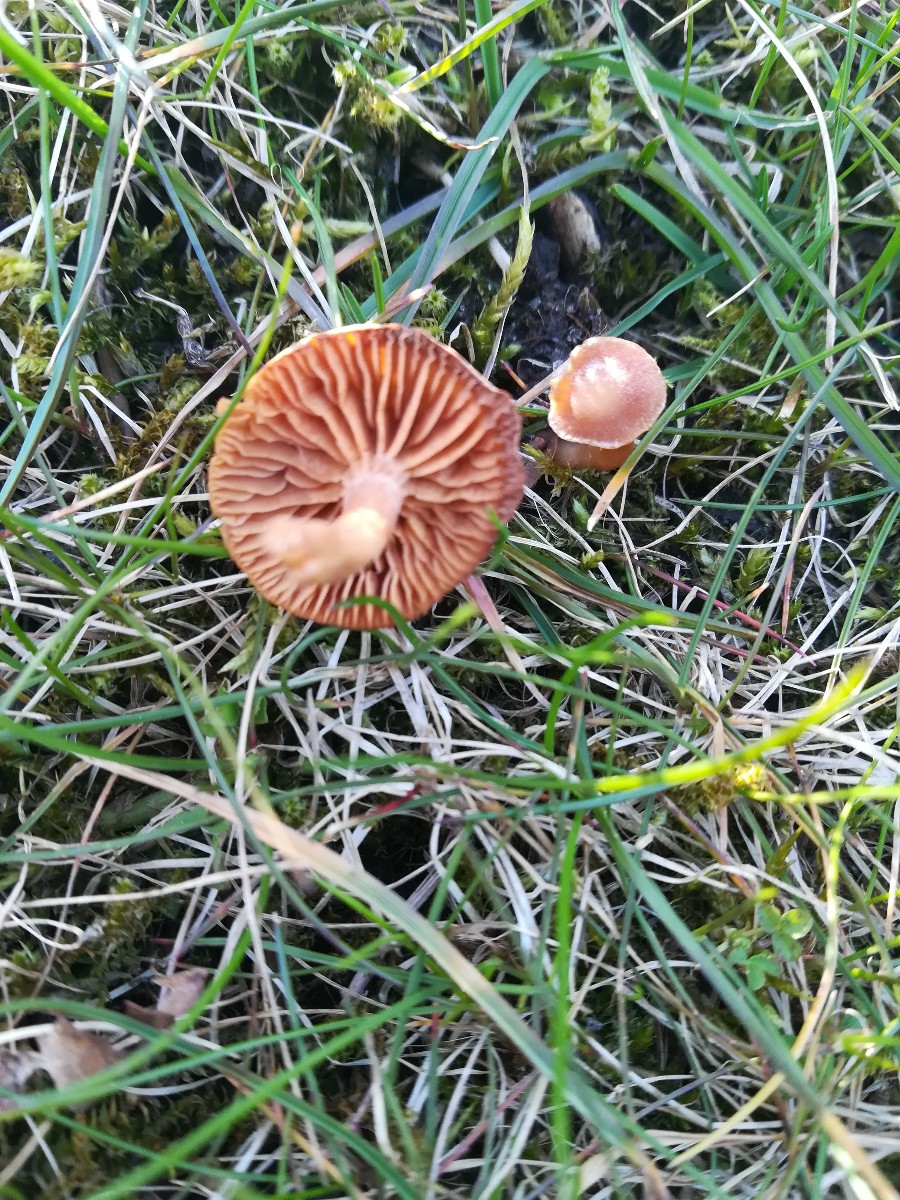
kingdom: Fungi
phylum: Basidiomycota
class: Agaricomycetes
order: Agaricales
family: Tubariaceae
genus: Tubaria
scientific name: Tubaria furfuracea
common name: kliddet fnughat
